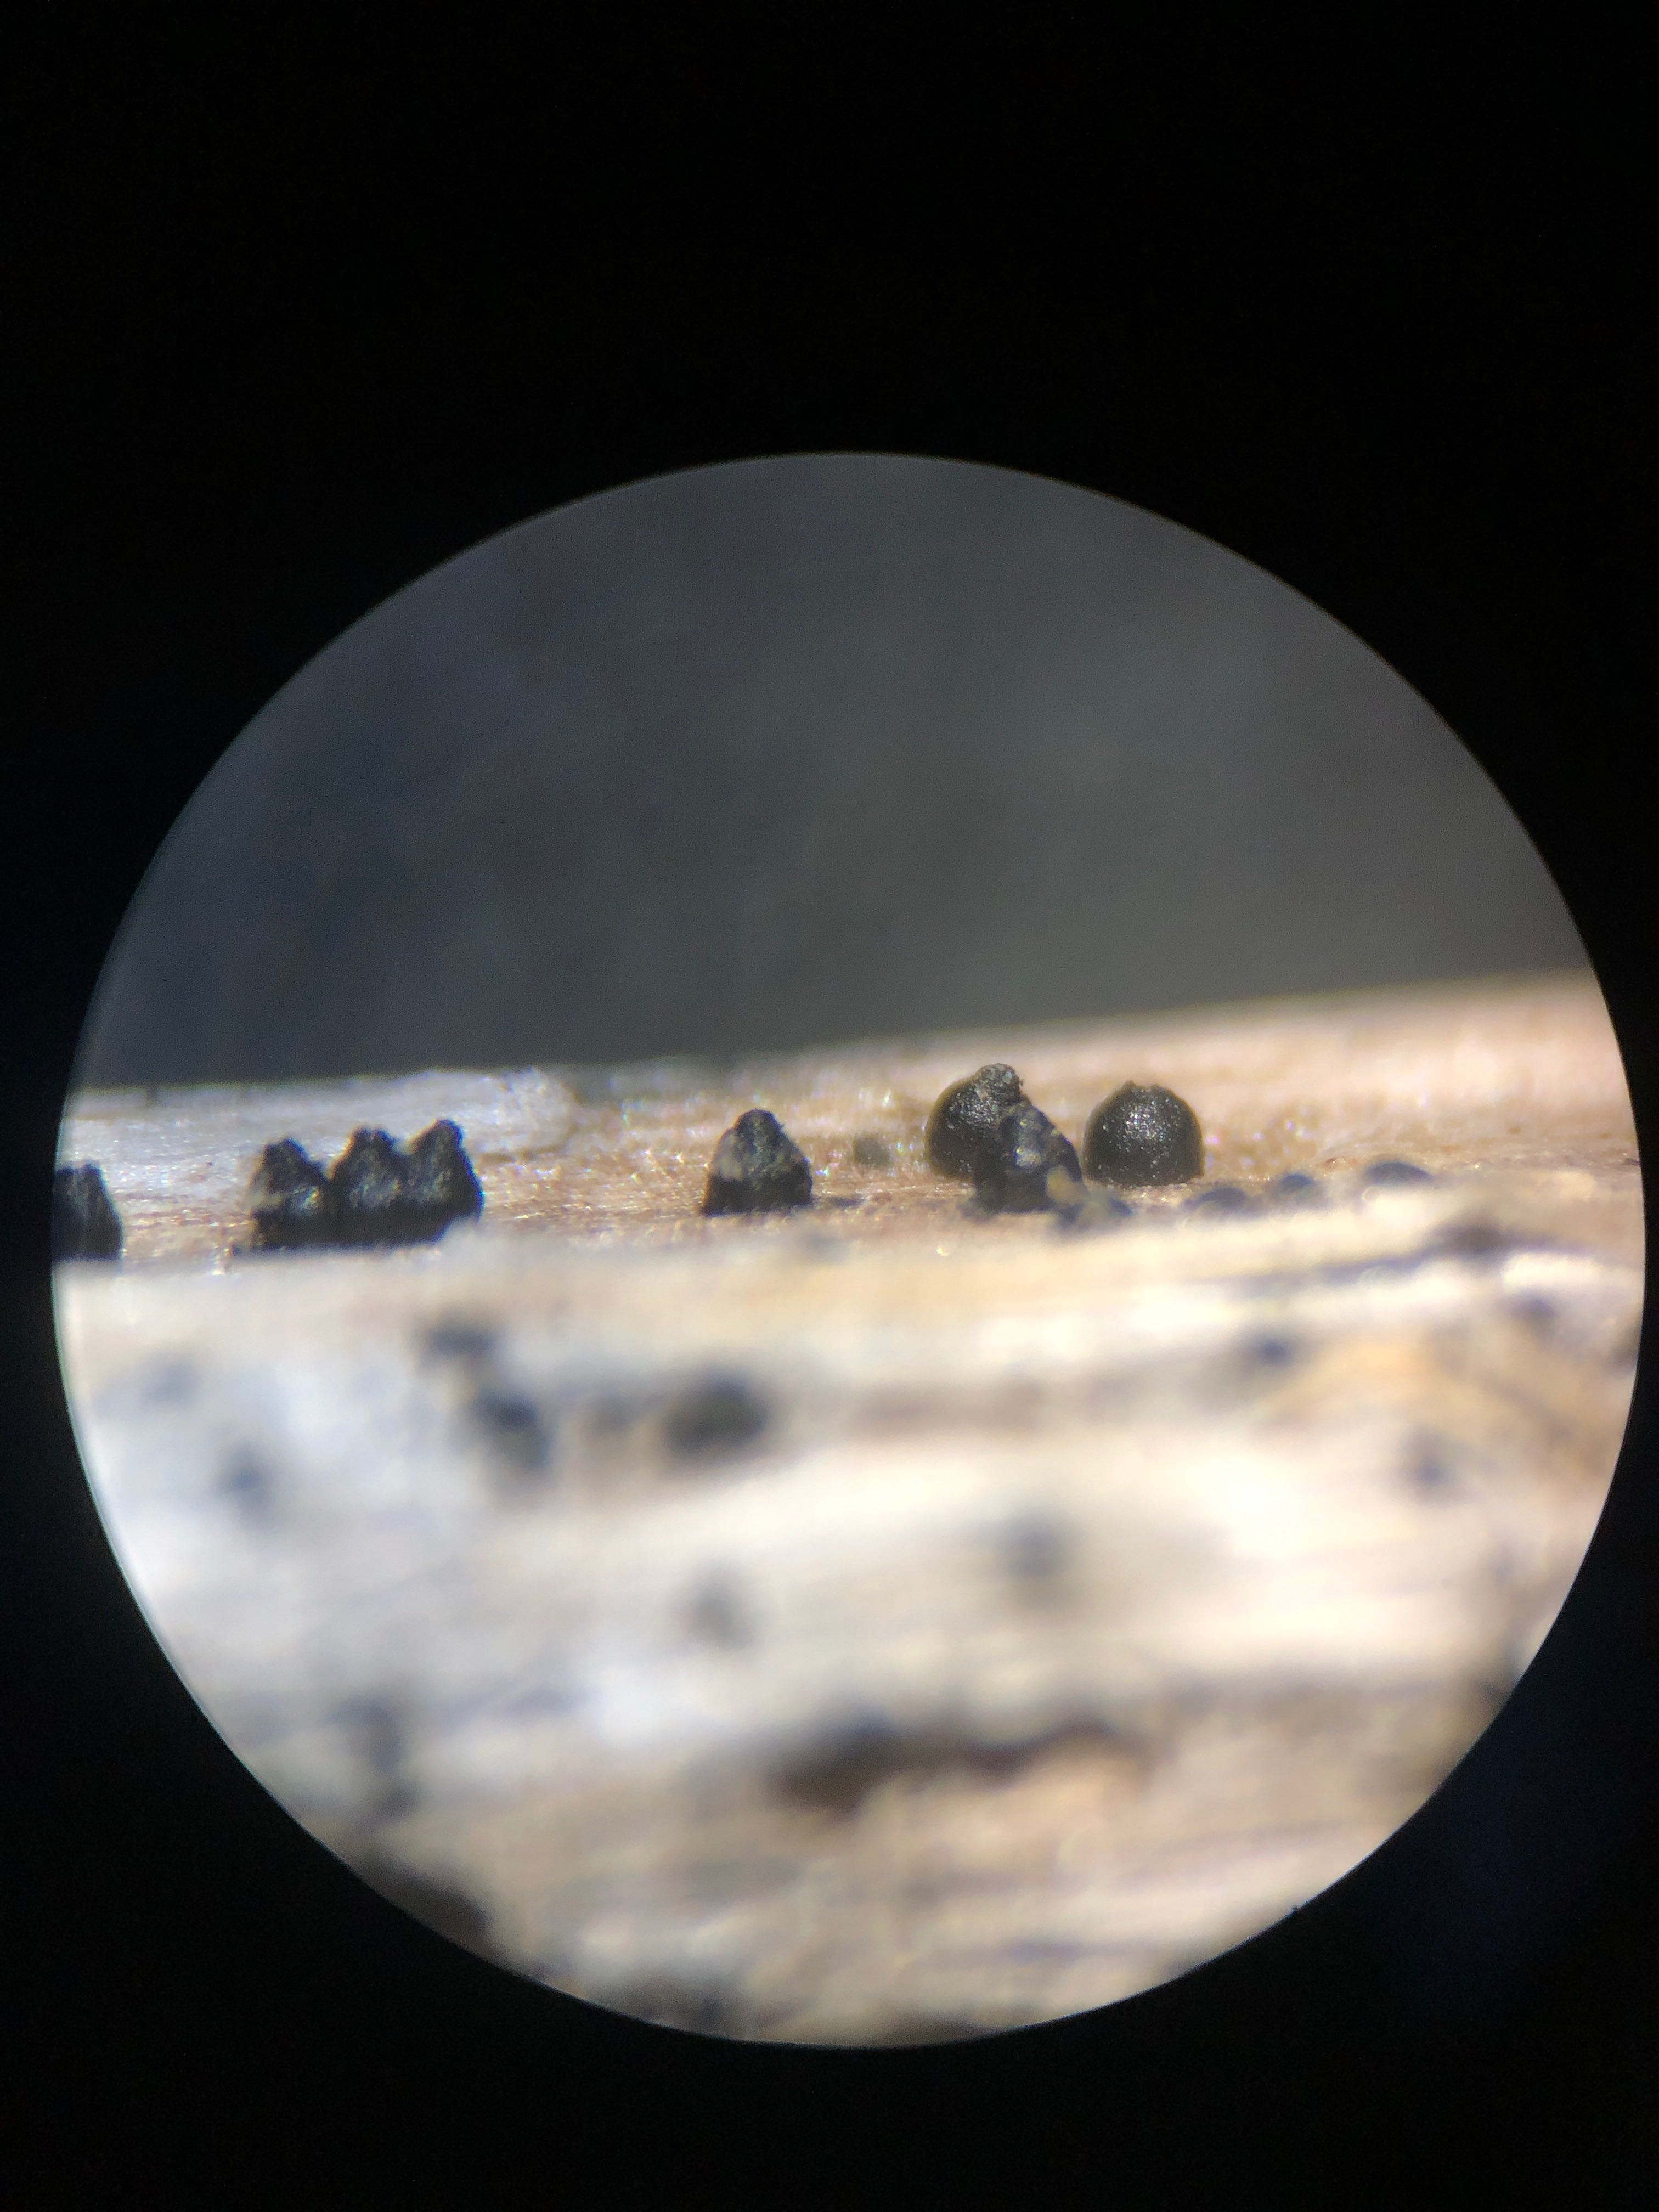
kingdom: Fungi
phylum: Ascomycota
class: Dothideomycetes
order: Pleosporales
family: Leptosphaeriaceae
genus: Leptosphaeria
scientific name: Leptosphaeria acuta
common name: spids kulkegle
